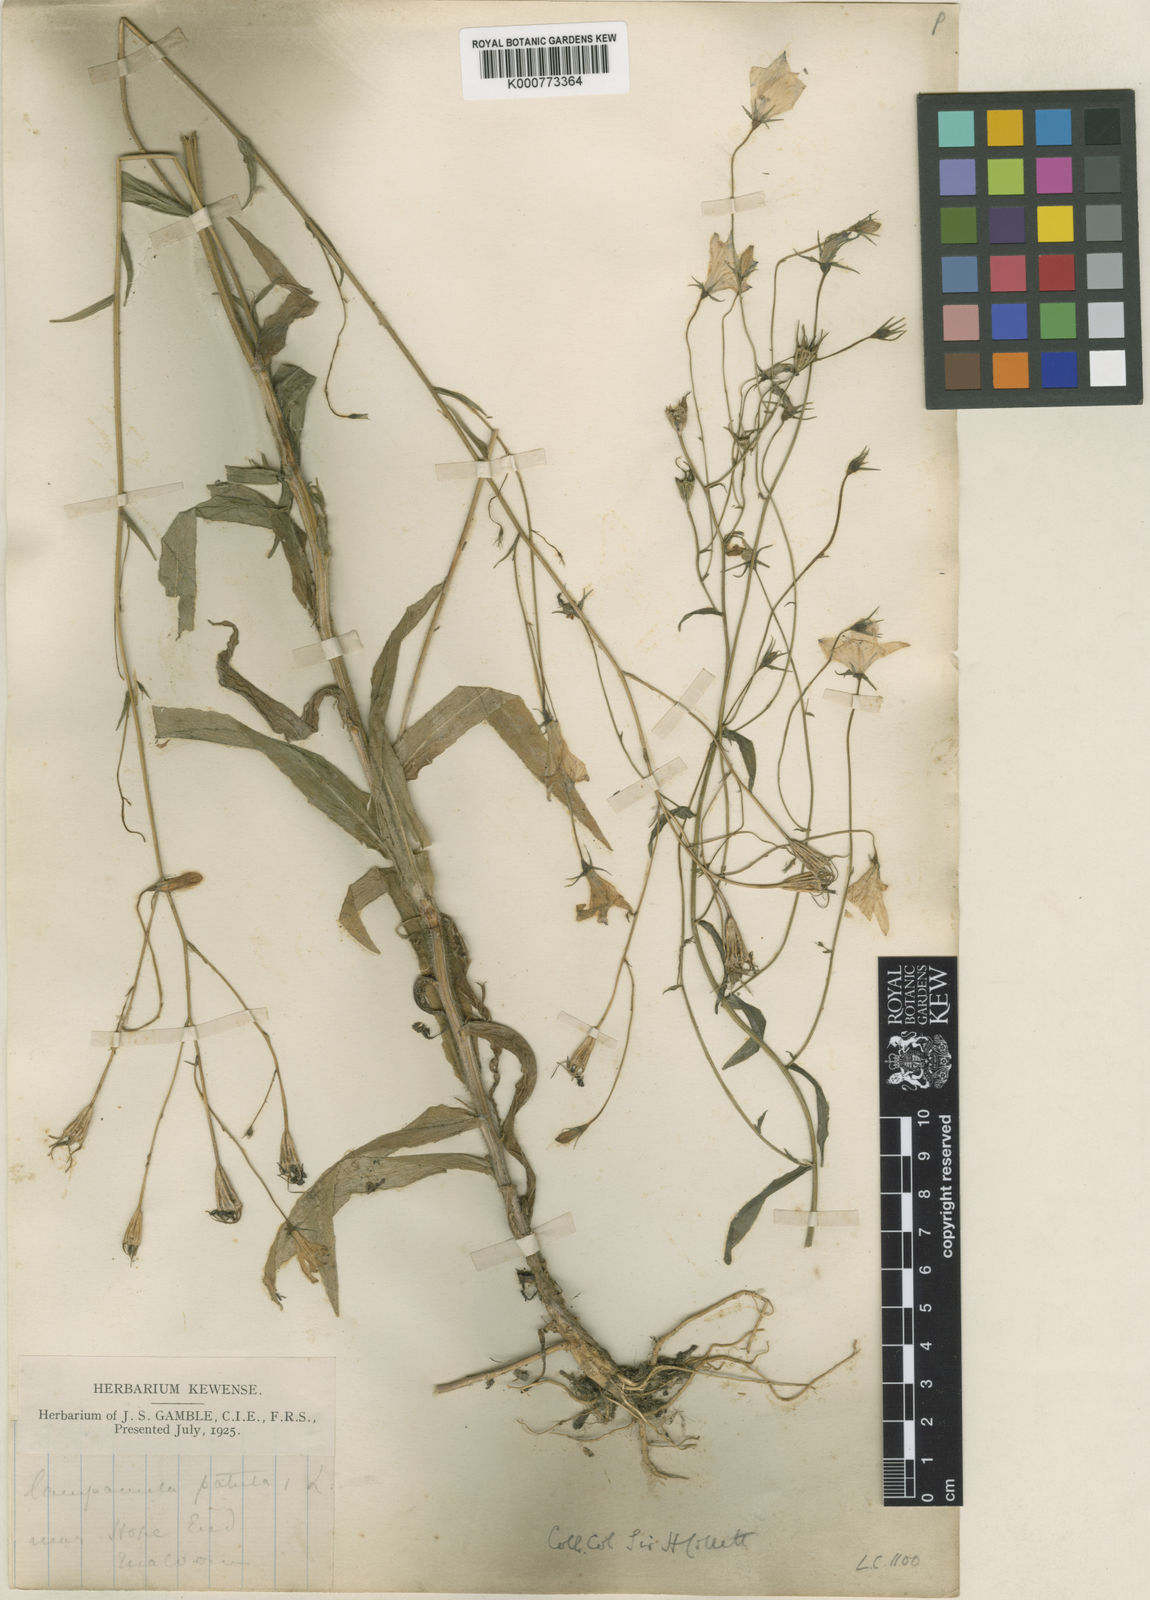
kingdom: Plantae
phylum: Tracheophyta
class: Magnoliopsida
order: Asterales
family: Campanulaceae
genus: Campanula
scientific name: Campanula patula
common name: Spreading bellflower
